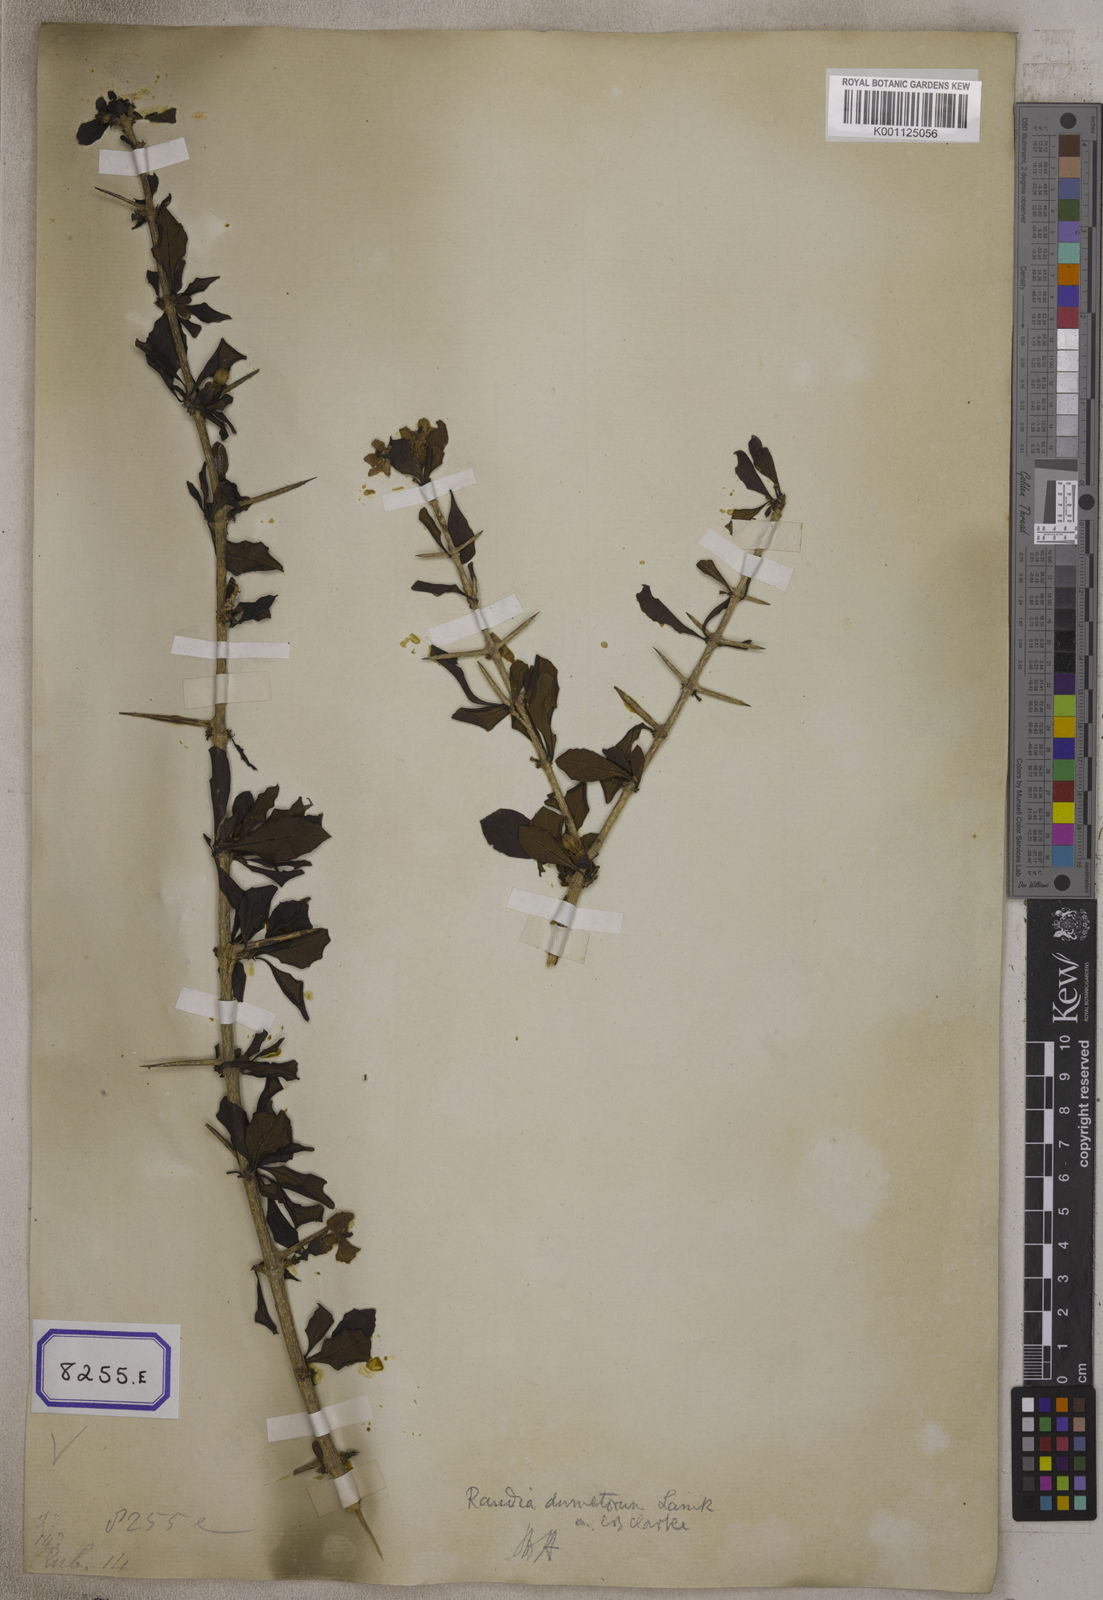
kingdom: Plantae
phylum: Tracheophyta
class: Magnoliopsida
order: Gentianales
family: Rubiaceae
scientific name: Rubiaceae
